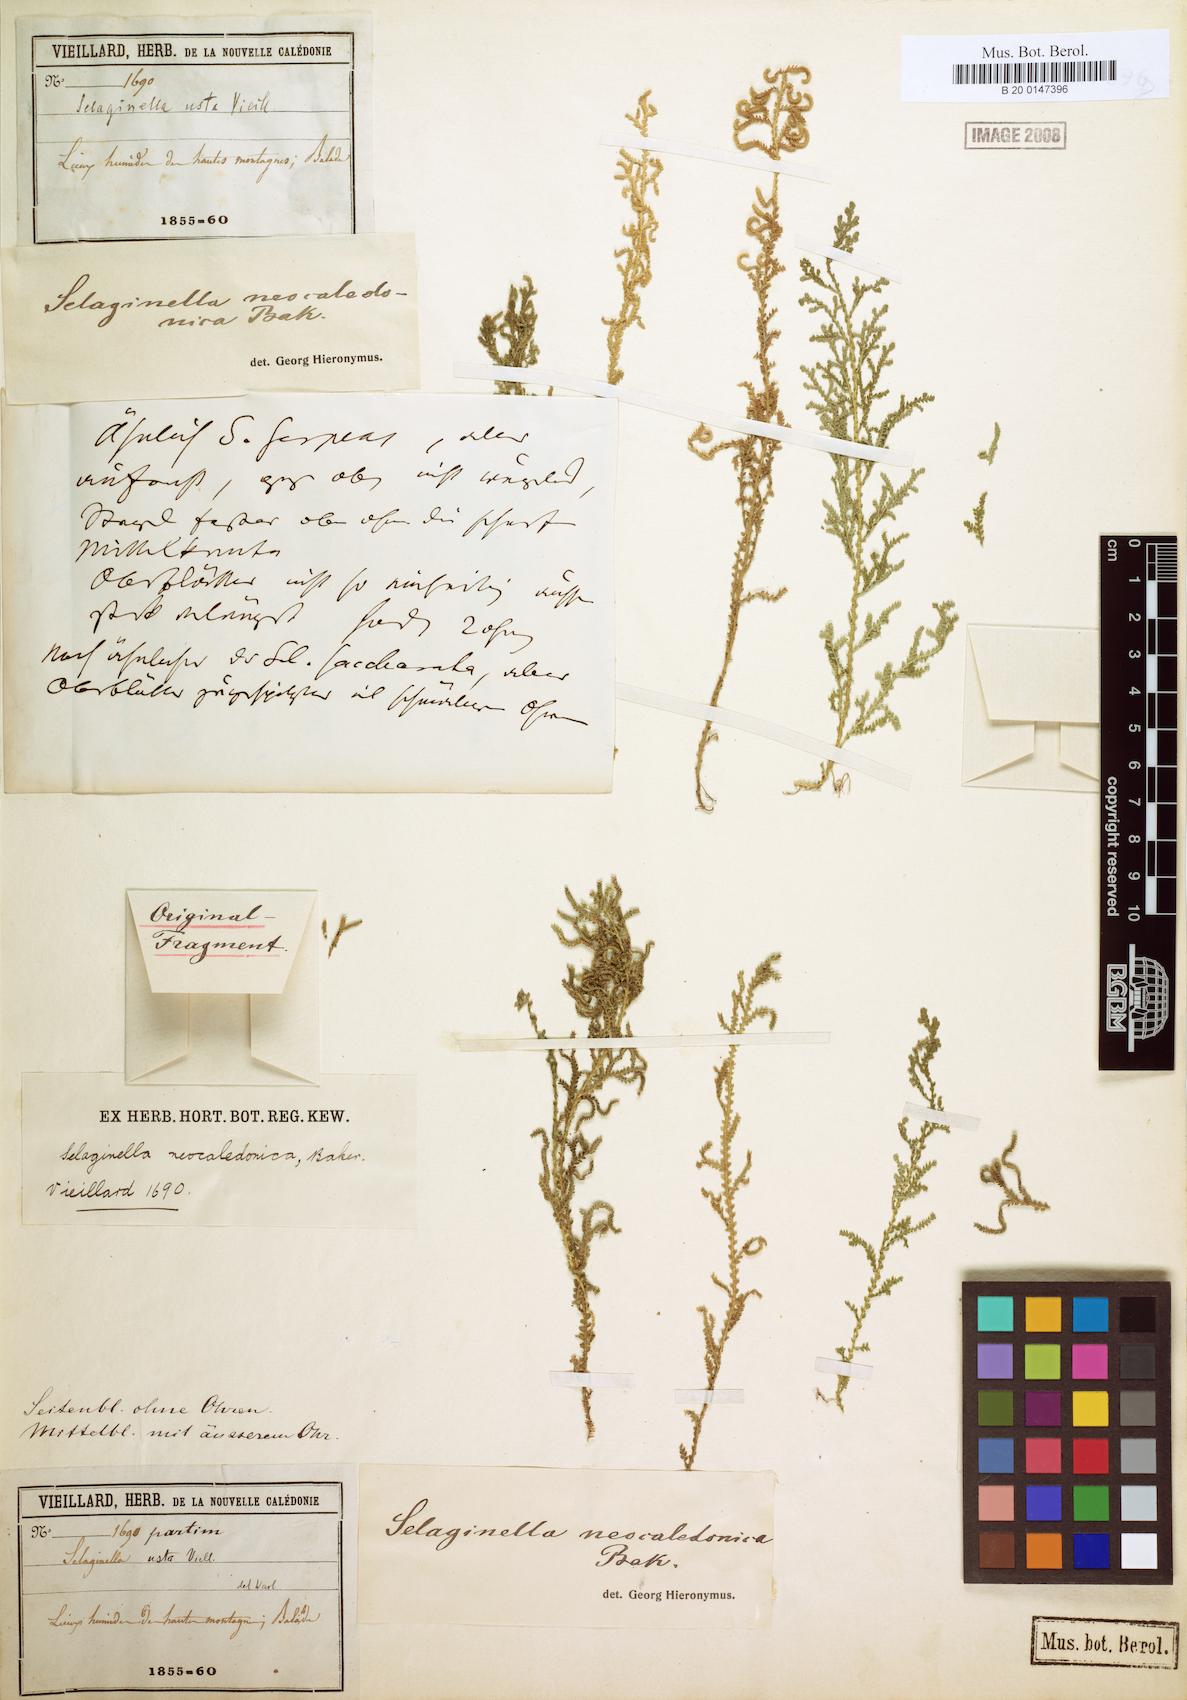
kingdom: Plantae
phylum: Tracheophyta
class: Lycopodiopsida
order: Selaginellales
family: Selaginellaceae
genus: Selaginella
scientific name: Selaginella neocaledonica
